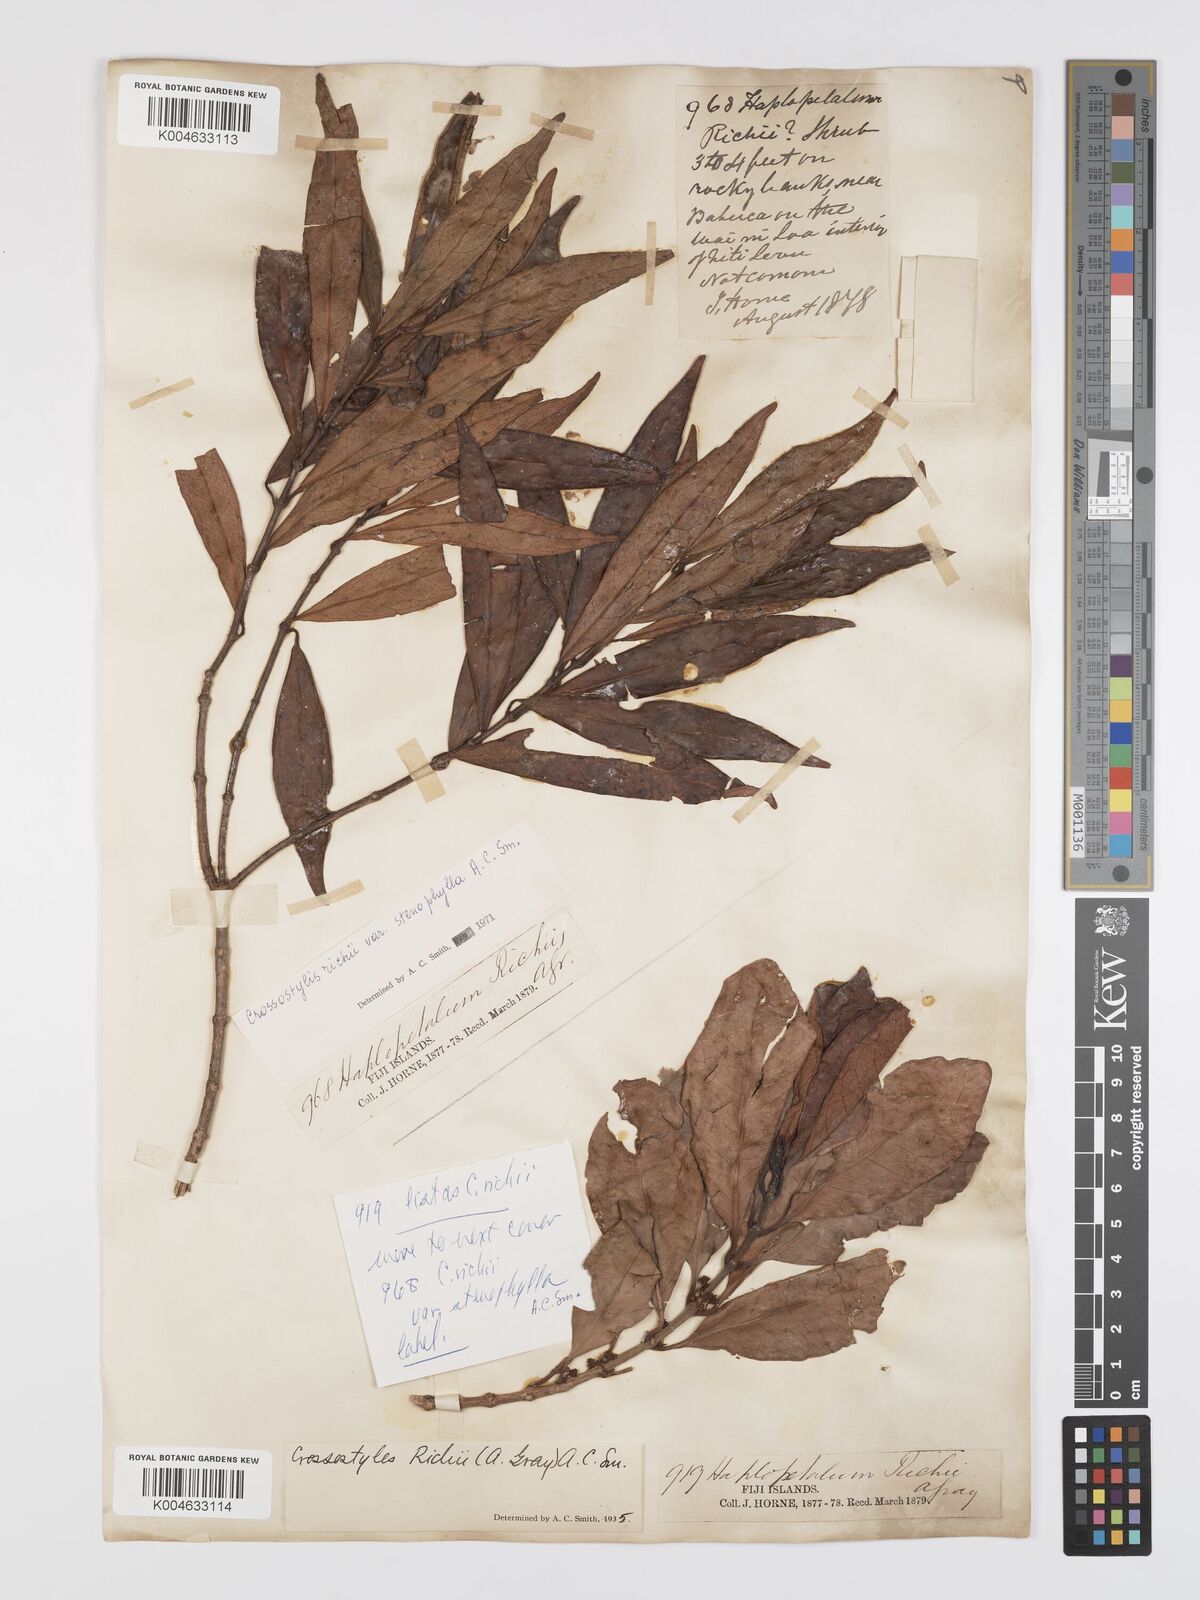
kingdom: Plantae
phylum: Tracheophyta
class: Magnoliopsida
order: Malpighiales
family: Rhizophoraceae
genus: Crossostylis
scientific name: Crossostylis richii
